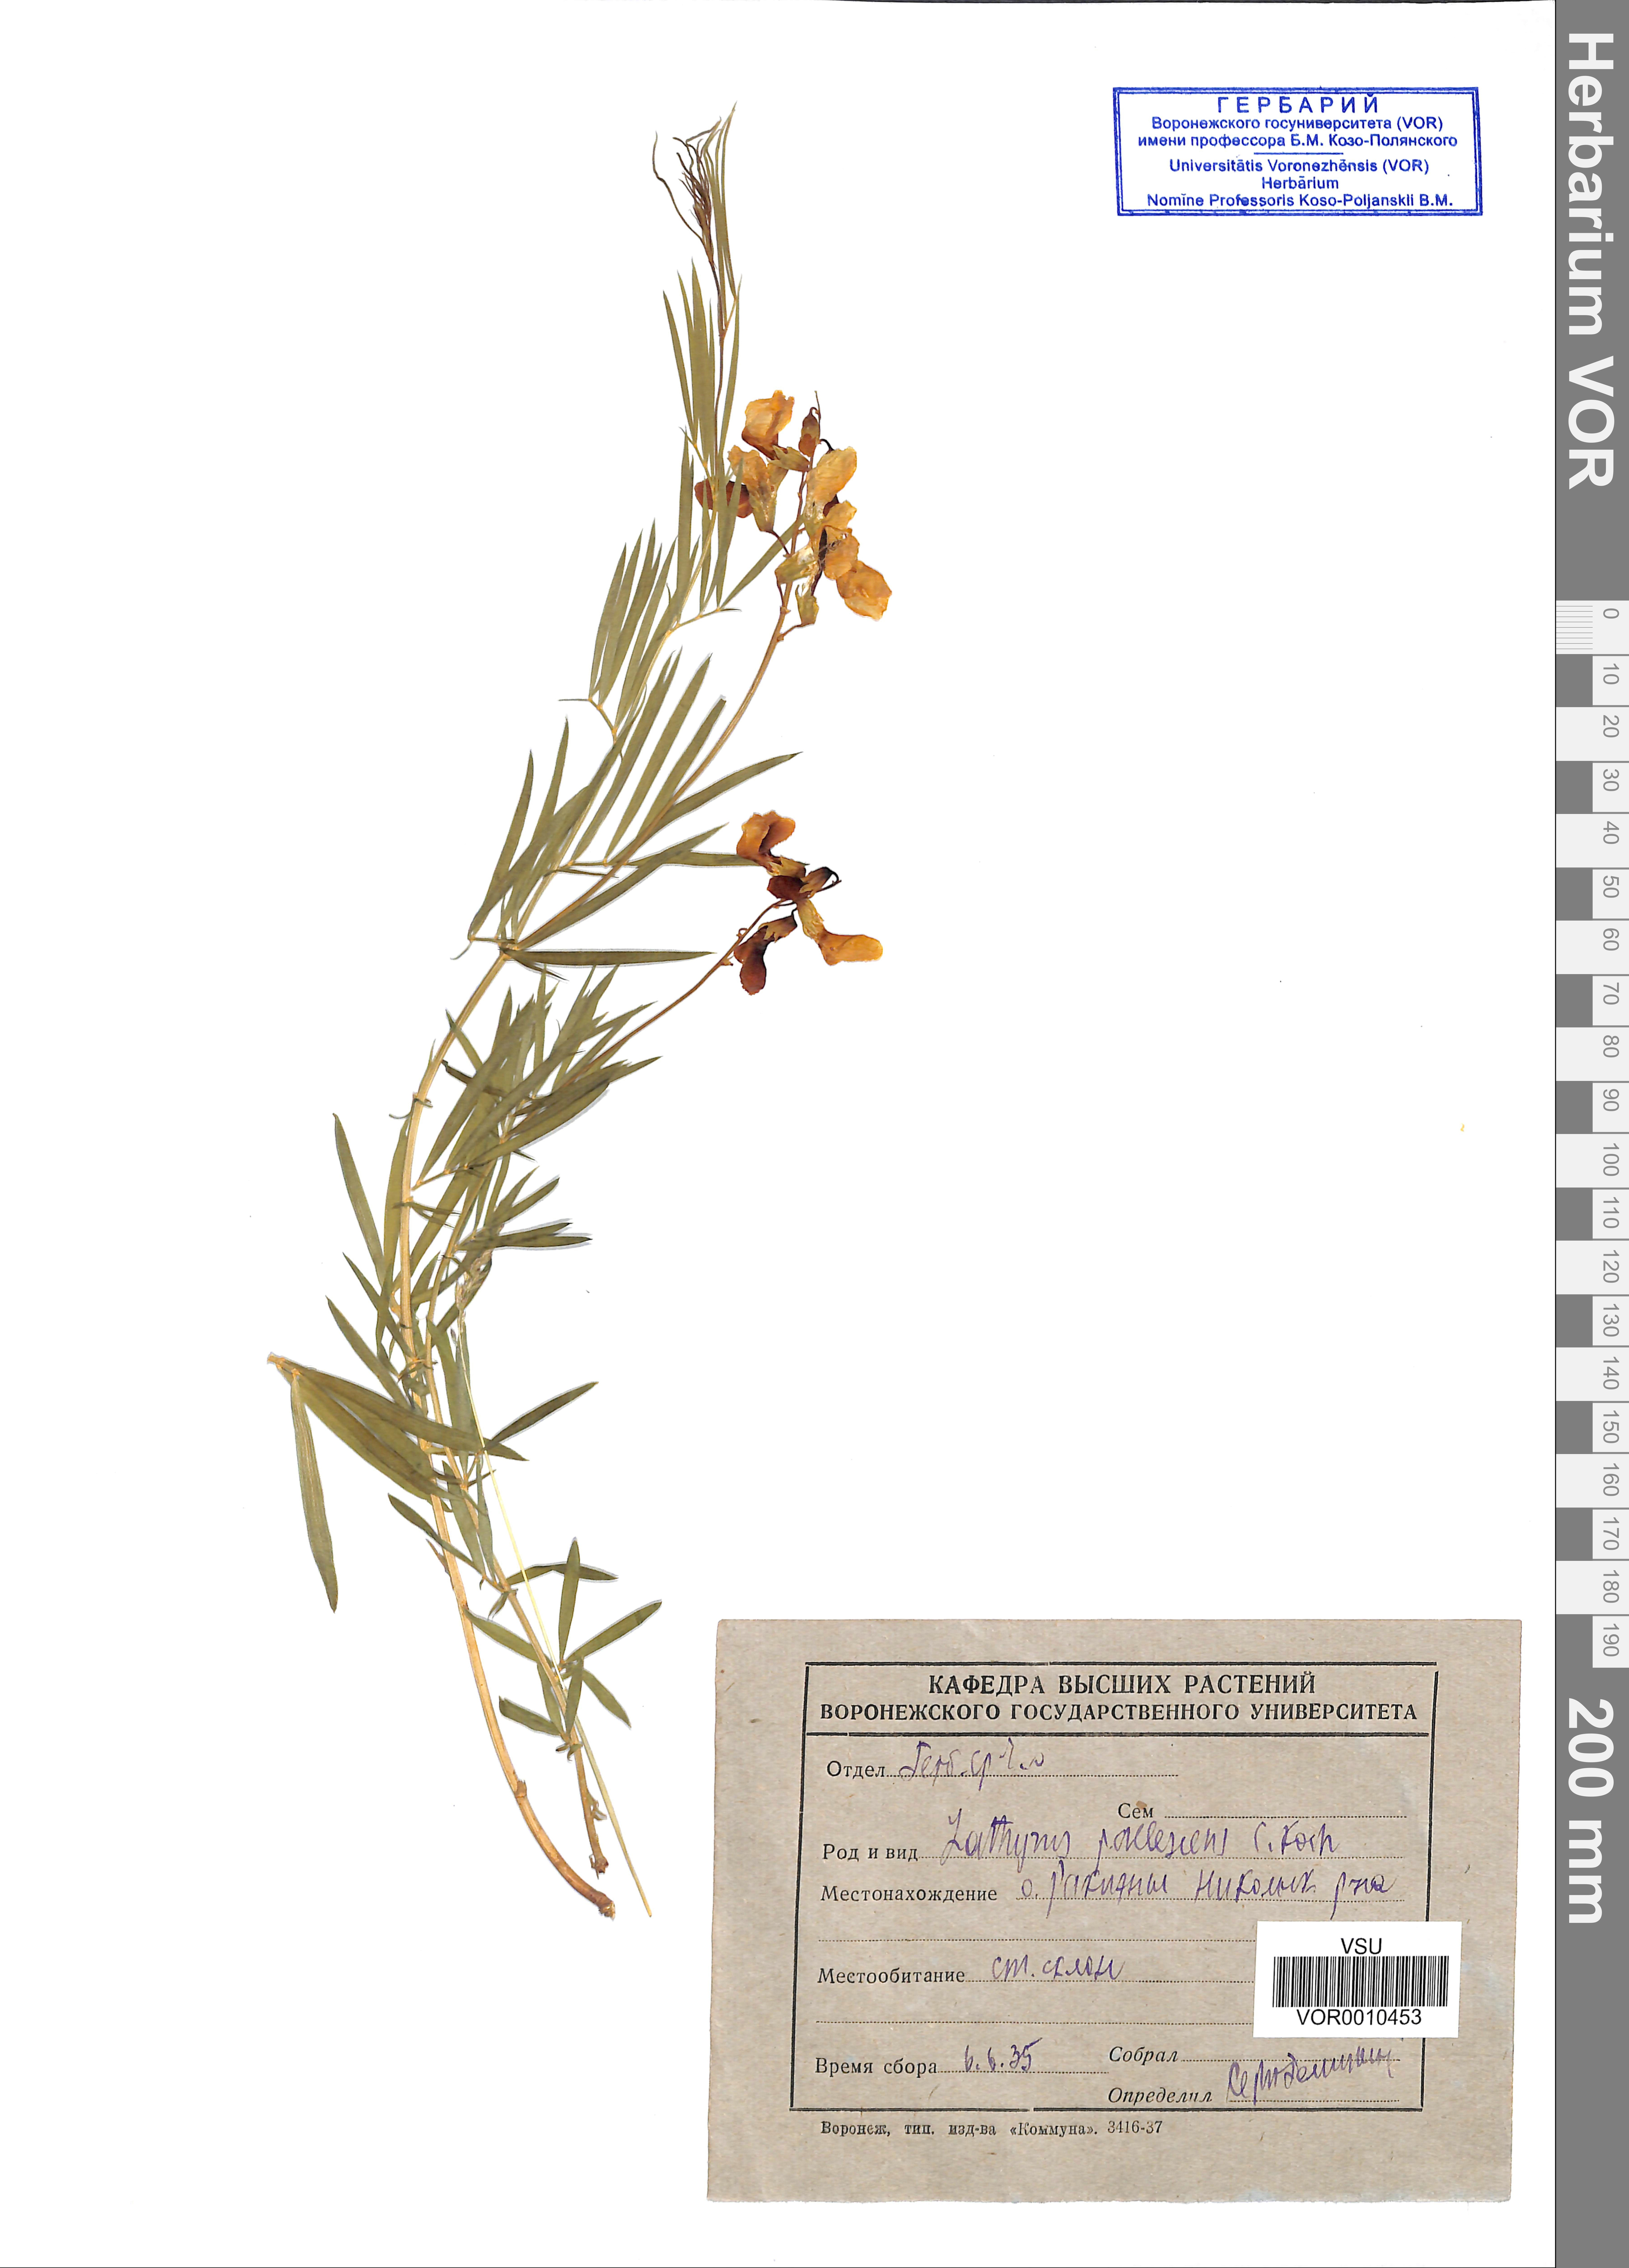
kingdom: Plantae
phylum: Tracheophyta
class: Magnoliopsida
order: Fabales
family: Fabaceae
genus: Lathyrus
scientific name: Lathyrus filiformis
